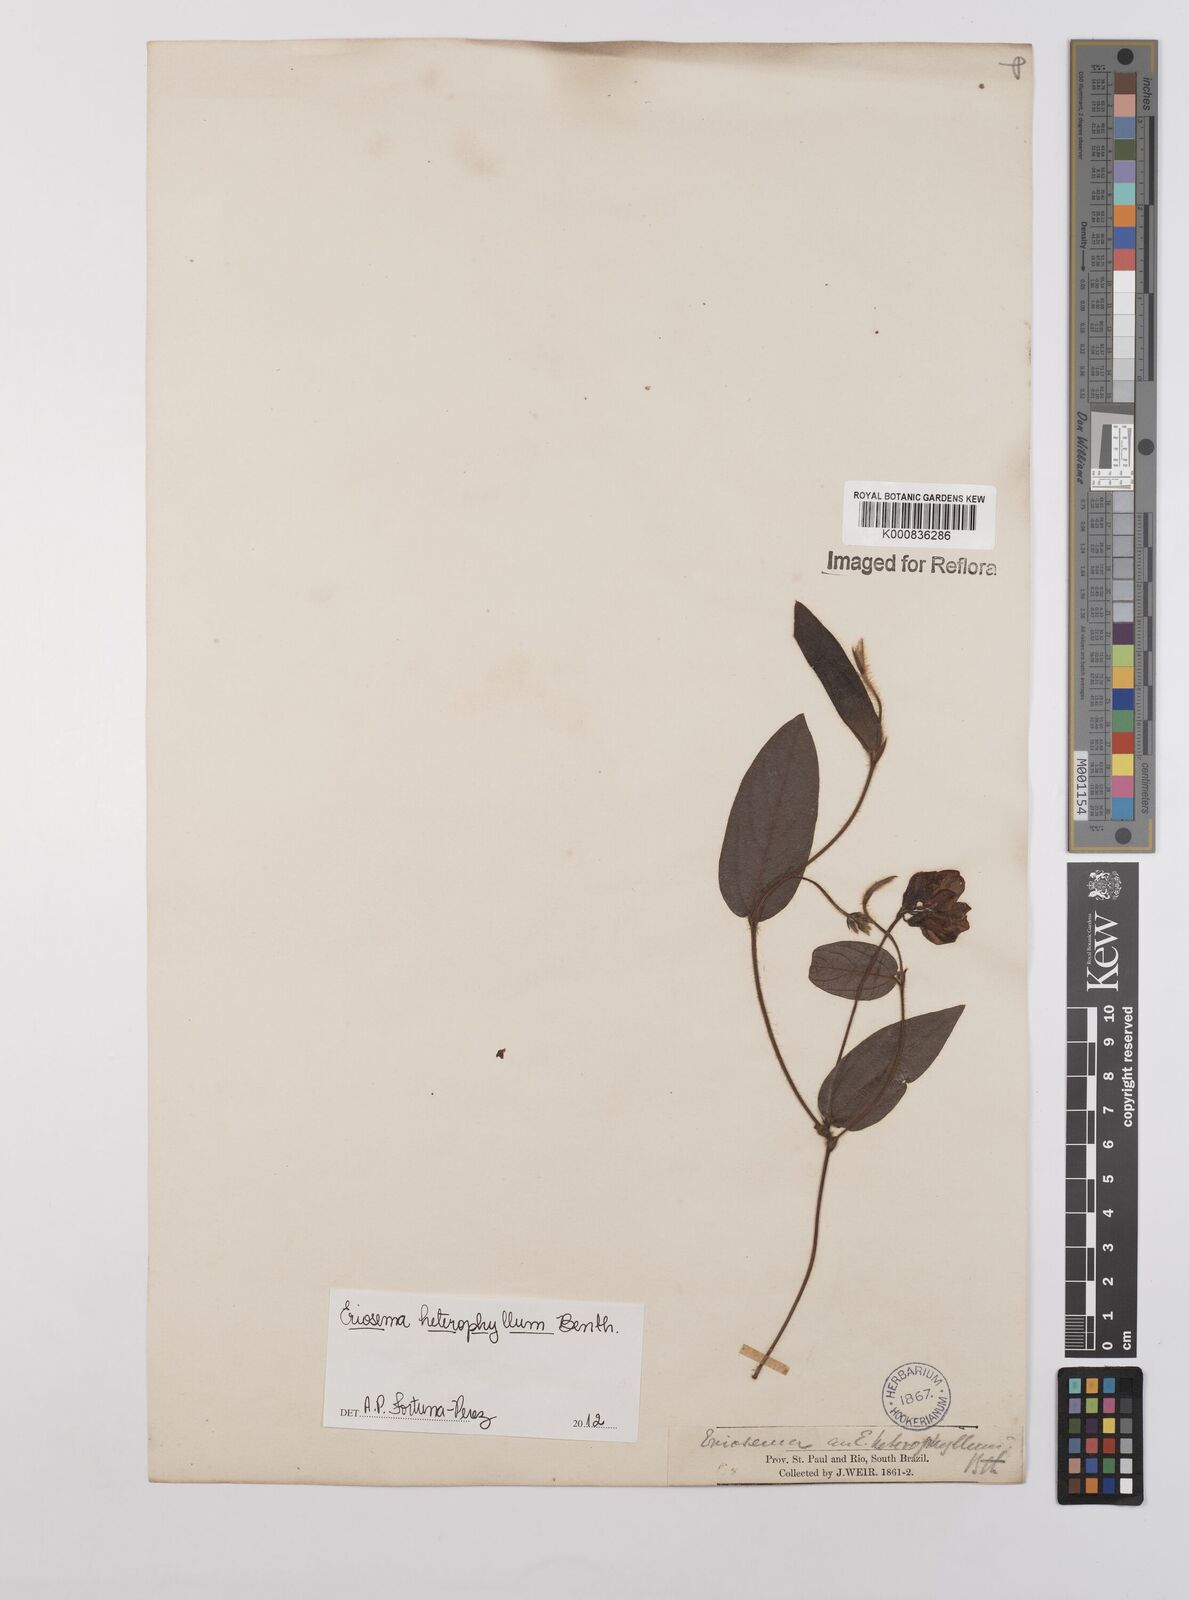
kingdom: Plantae
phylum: Tracheophyta
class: Magnoliopsida
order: Fabales
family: Fabaceae
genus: Eriosema
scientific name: Eriosema heterophyllum
